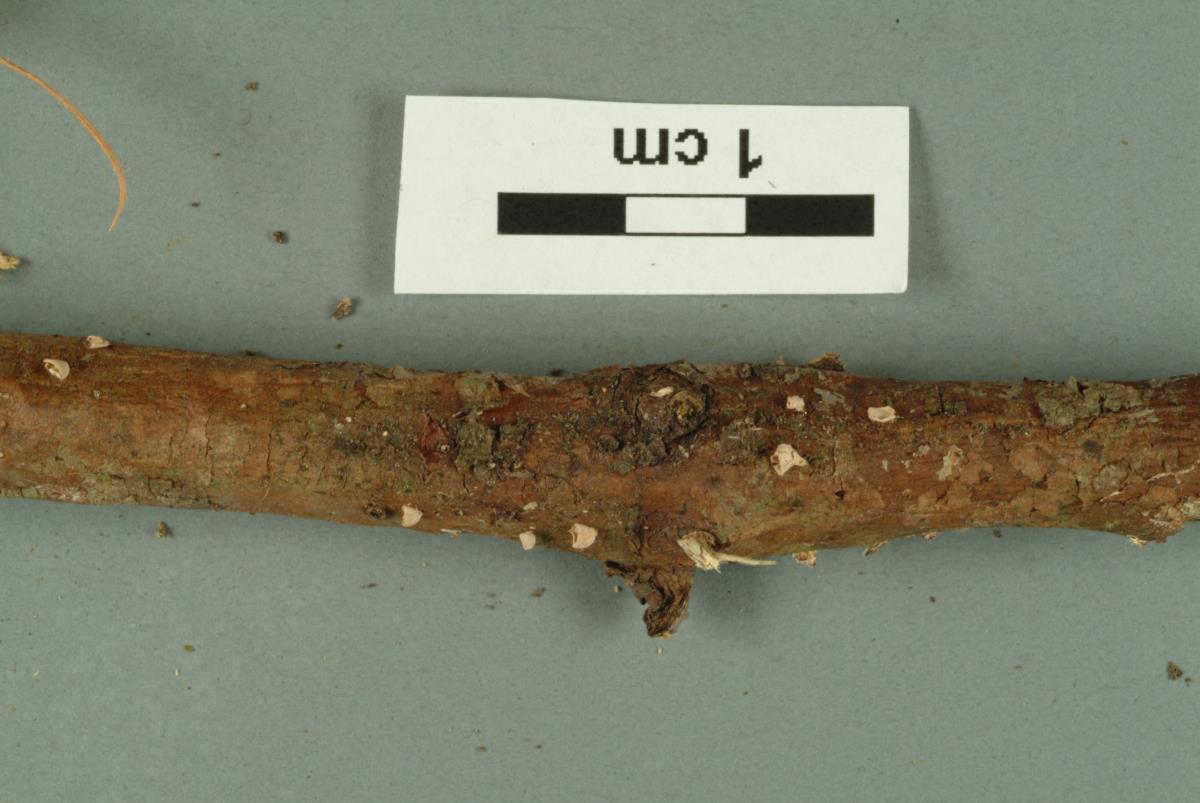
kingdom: Fungi
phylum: Basidiomycota
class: Agaricomycetes
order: Agaricales
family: Marasmiaceae
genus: Calyptella
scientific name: Calyptella totara
